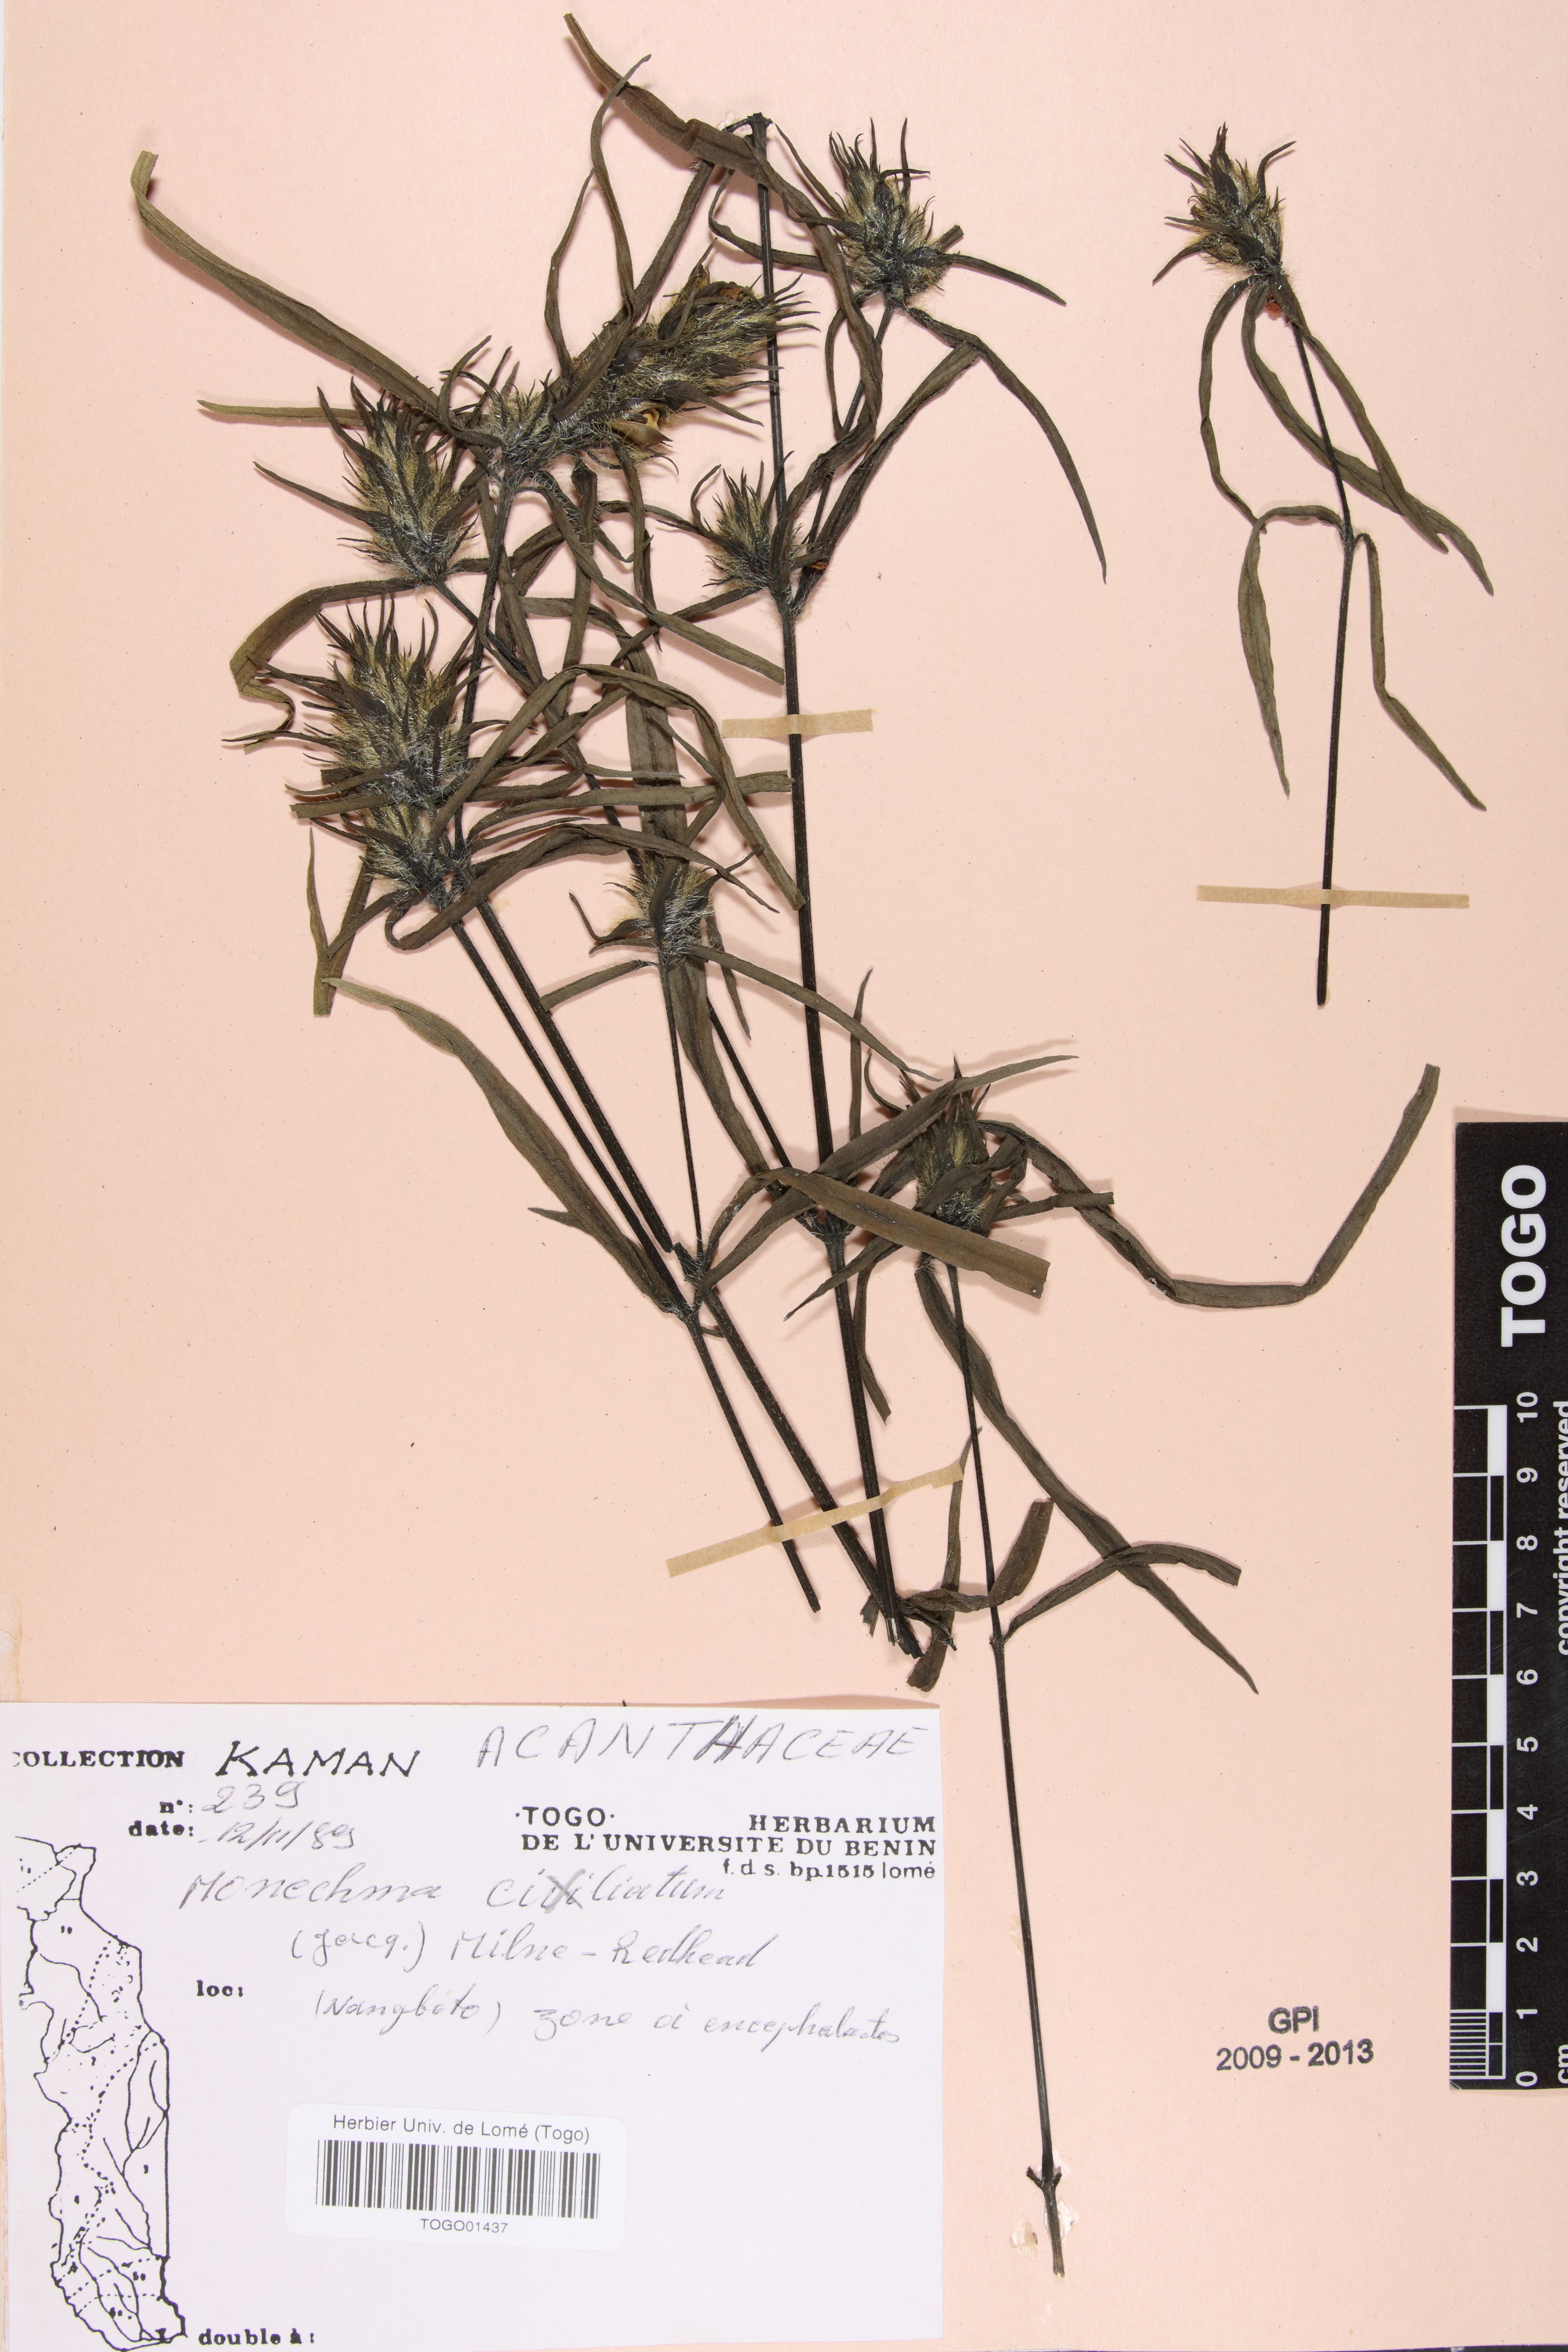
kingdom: Plantae
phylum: Tracheophyta
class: Magnoliopsida
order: Lamiales
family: Acanthaceae
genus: Pogonospermum
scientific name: Pogonospermum ciliare
